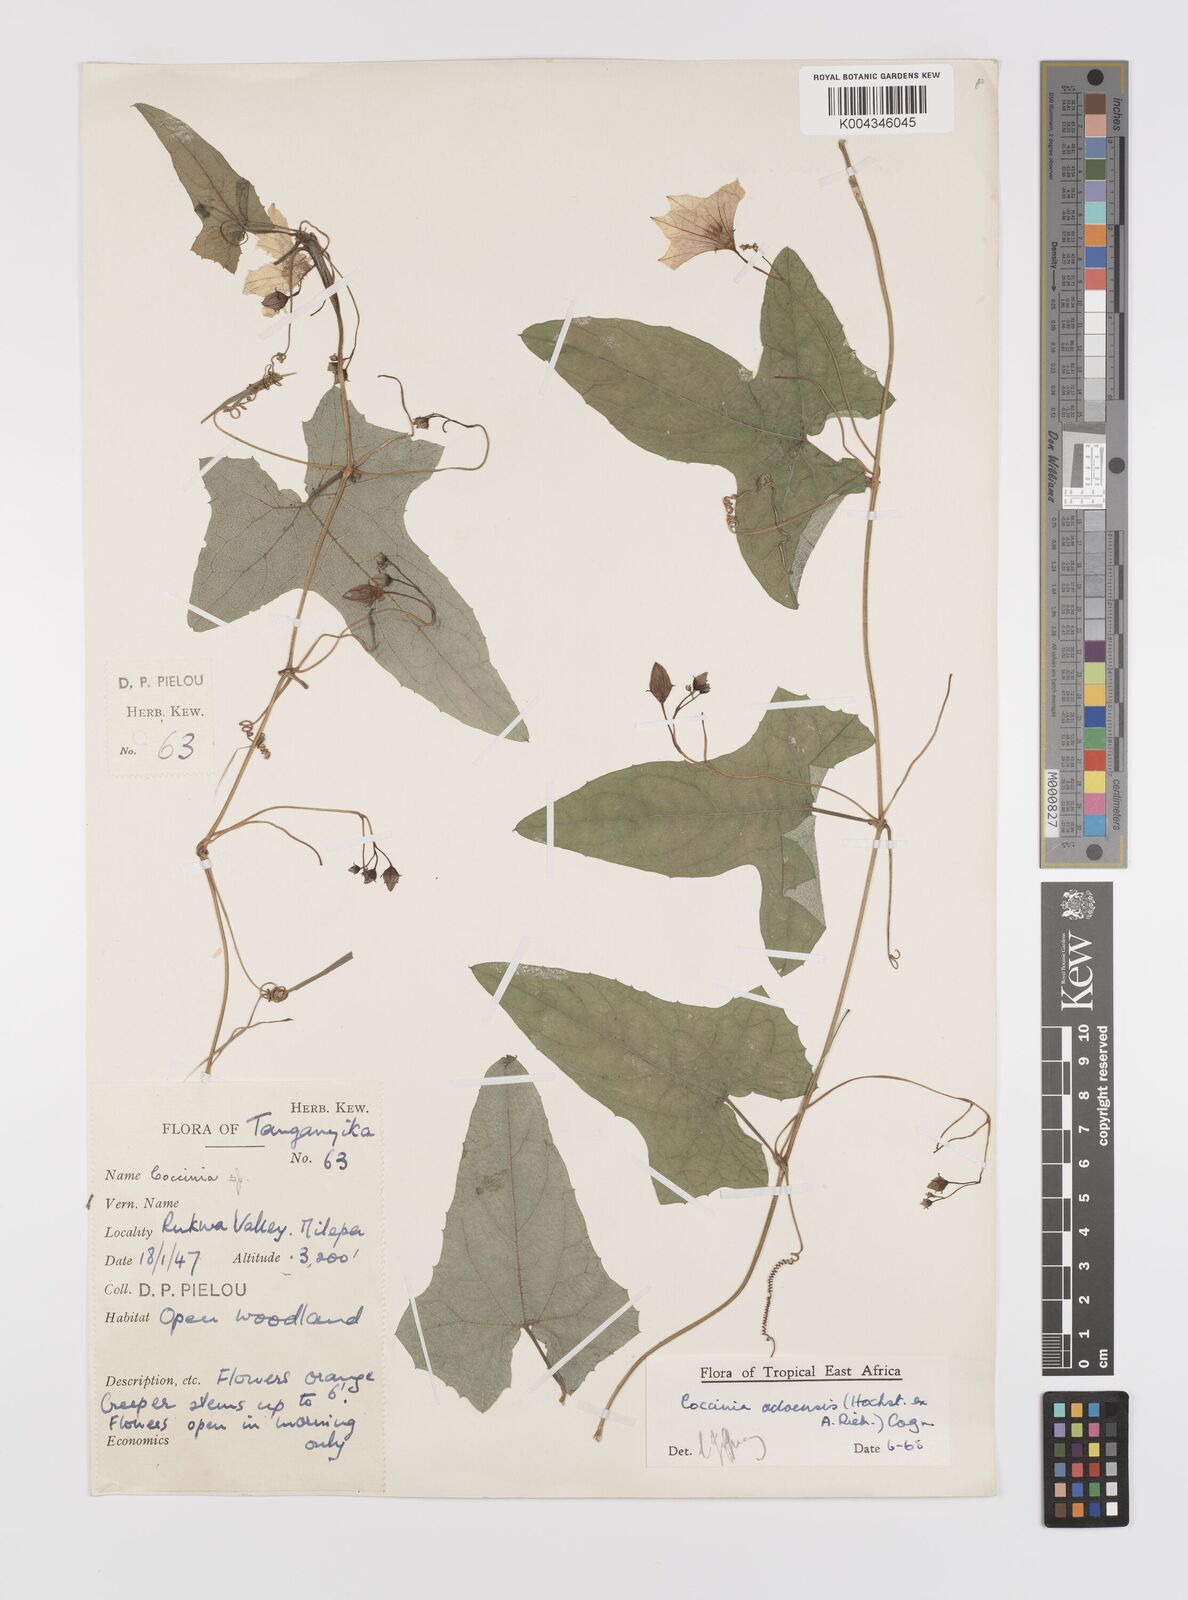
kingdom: Plantae
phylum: Tracheophyta
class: Magnoliopsida
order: Cucurbitales
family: Cucurbitaceae
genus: Coccinia
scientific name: Coccinia adoensis
